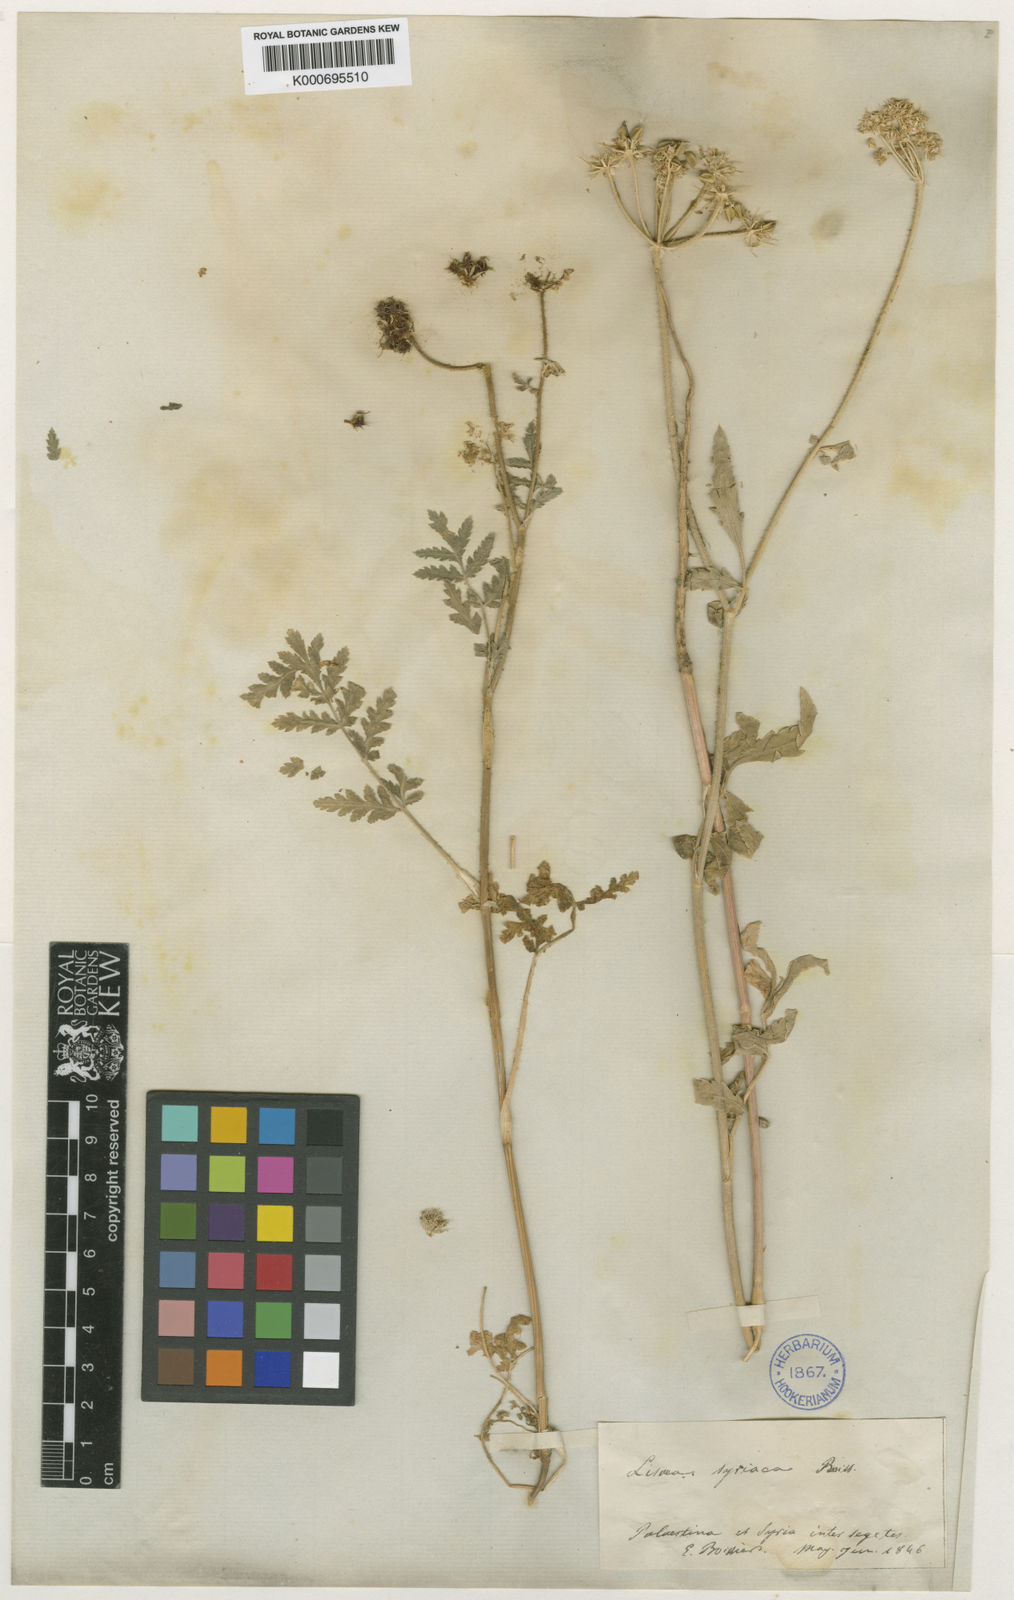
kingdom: Plantae
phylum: Tracheophyta
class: Magnoliopsida
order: Apiales
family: Apiaceae
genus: Lisaea
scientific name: Lisaea
